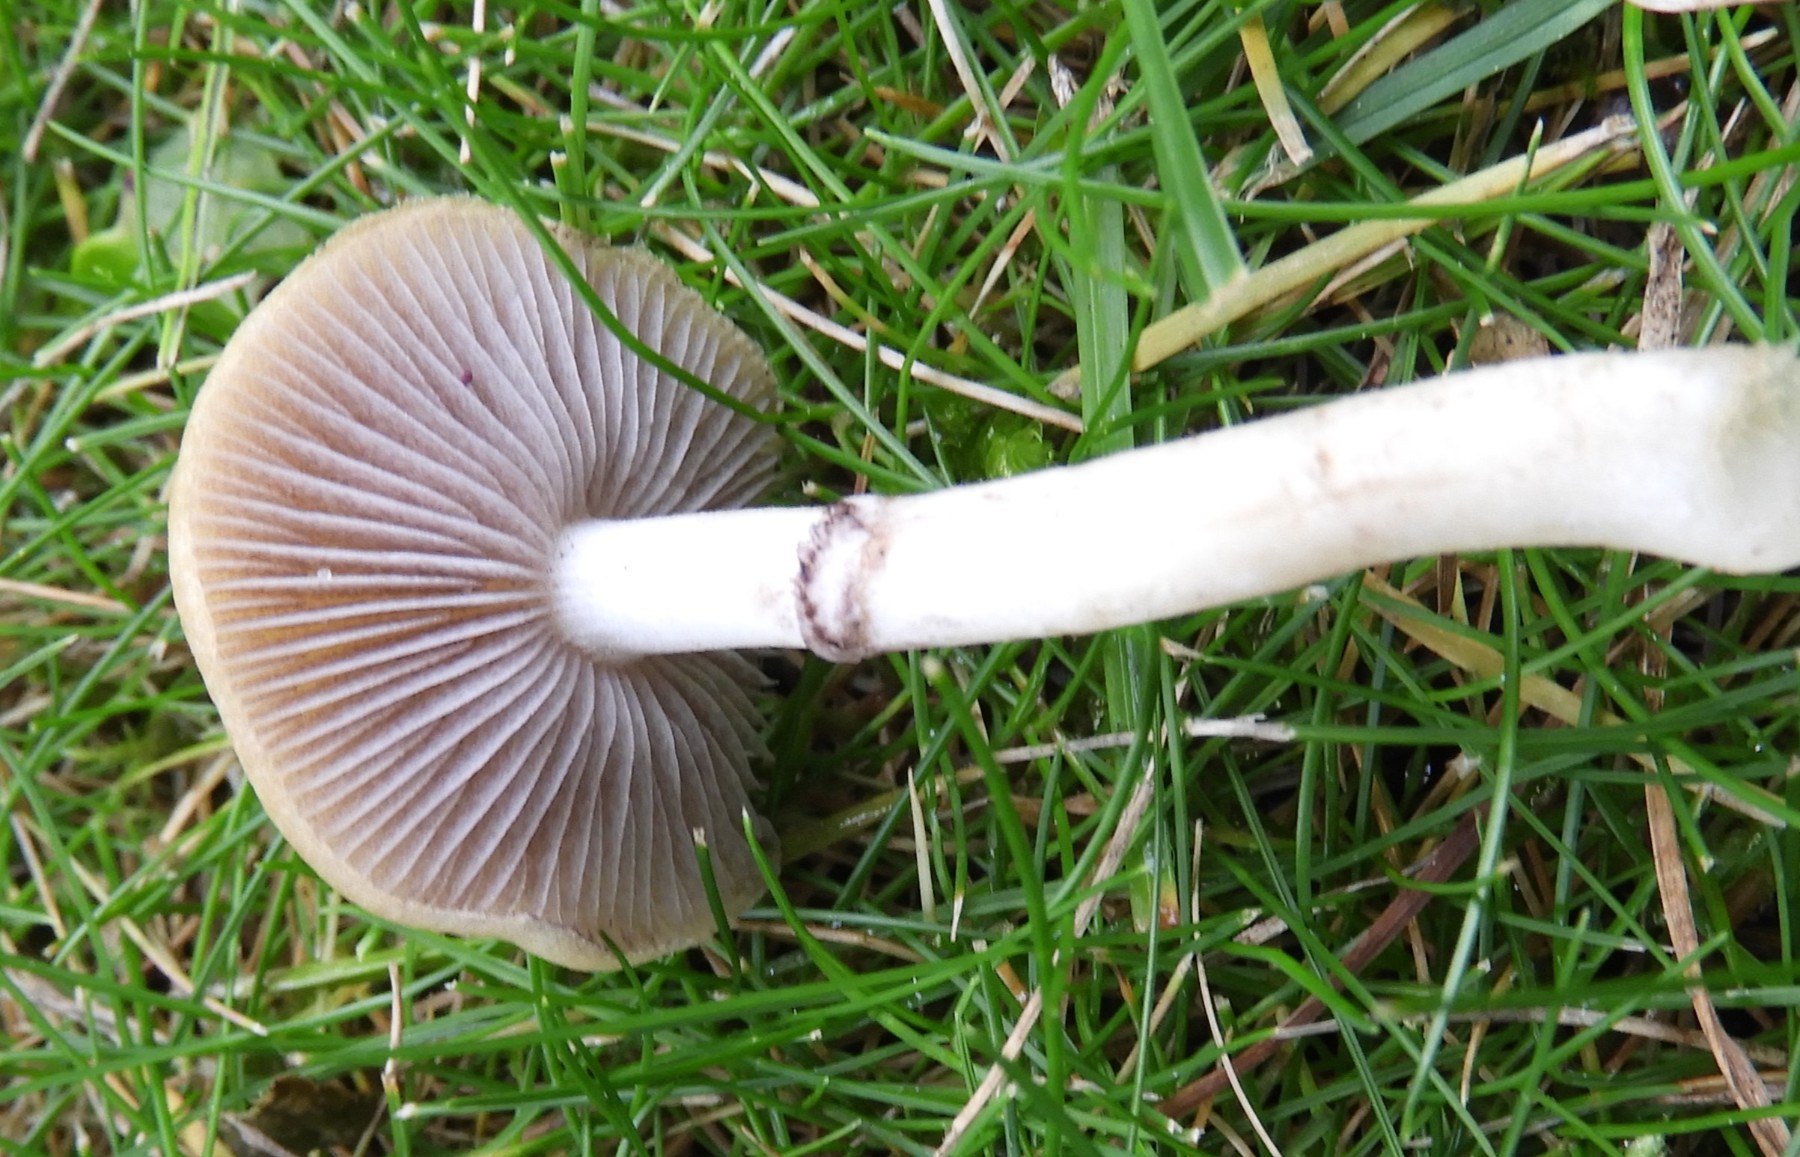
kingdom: Fungi
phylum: Basidiomycota
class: Agaricomycetes
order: Agaricales
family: Hymenogastraceae
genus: Psilocybe
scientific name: Psilocybe coronilla
